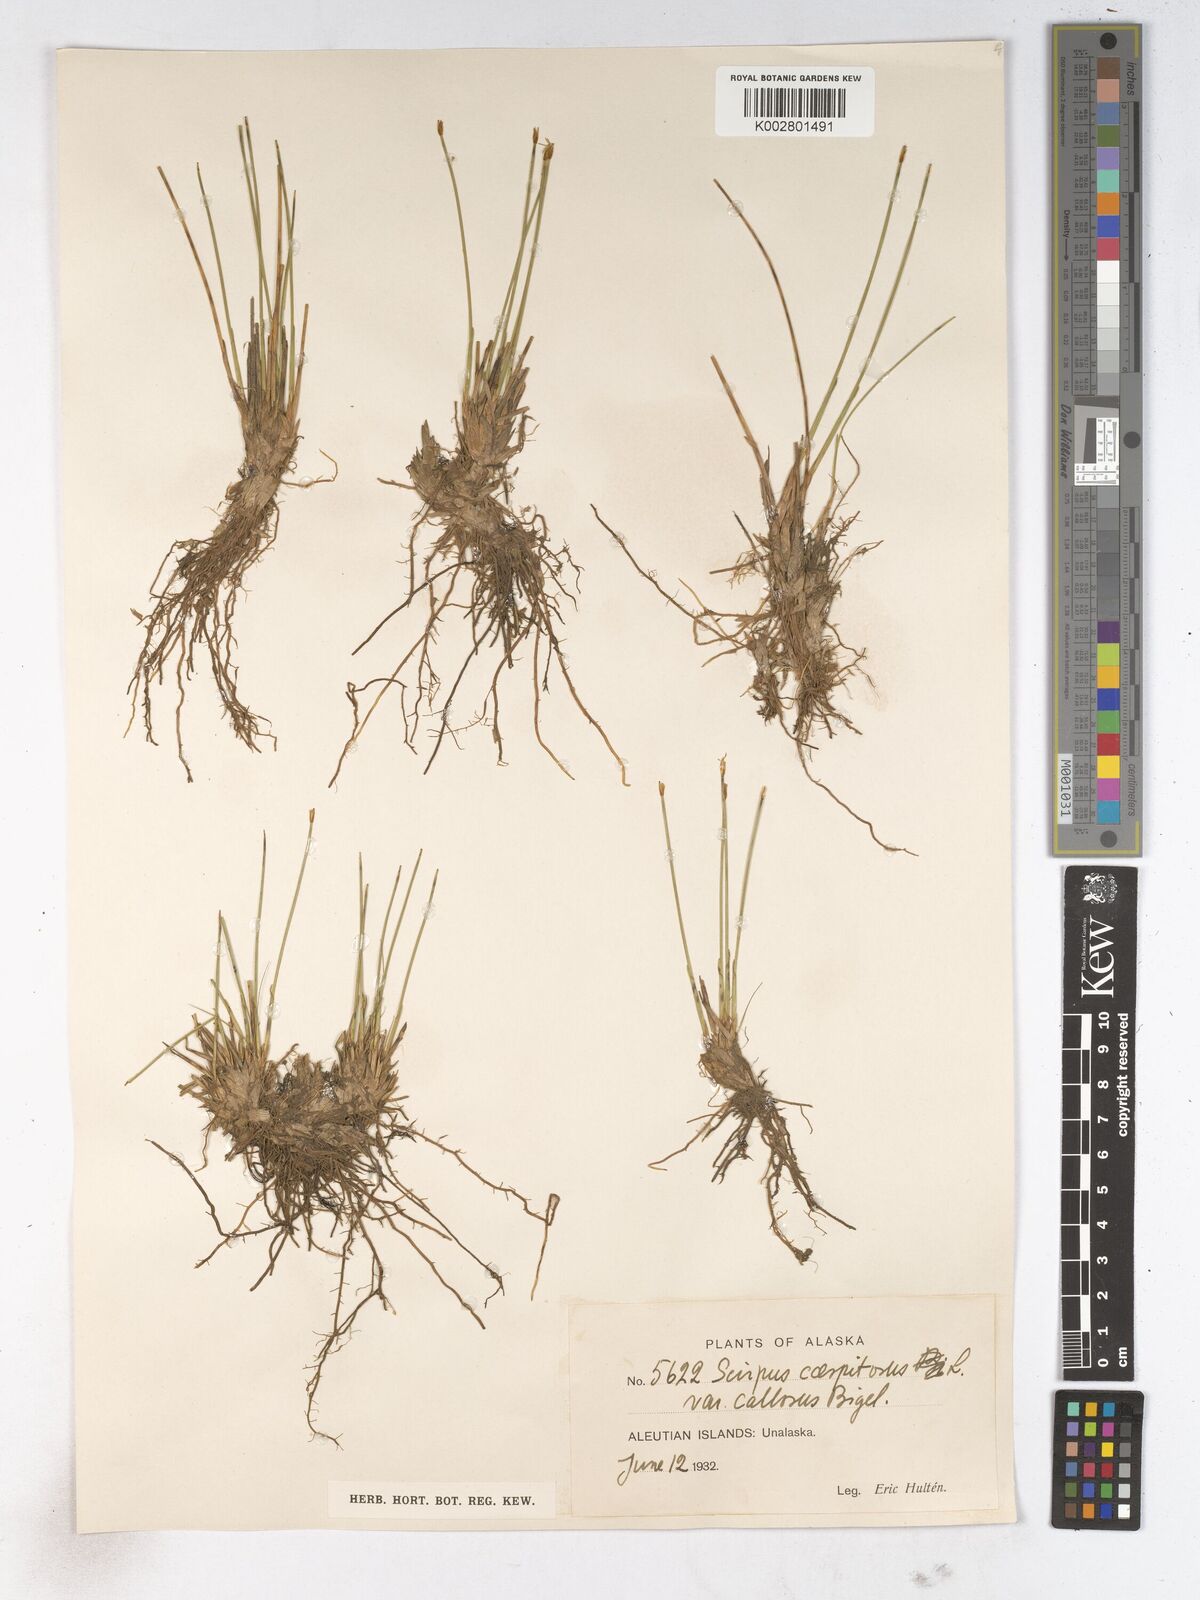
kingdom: Plantae
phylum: Tracheophyta
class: Liliopsida
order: Poales
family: Cyperaceae
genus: Trichophorum
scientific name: Trichophorum cespitosum
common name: Cespitose bulrush
